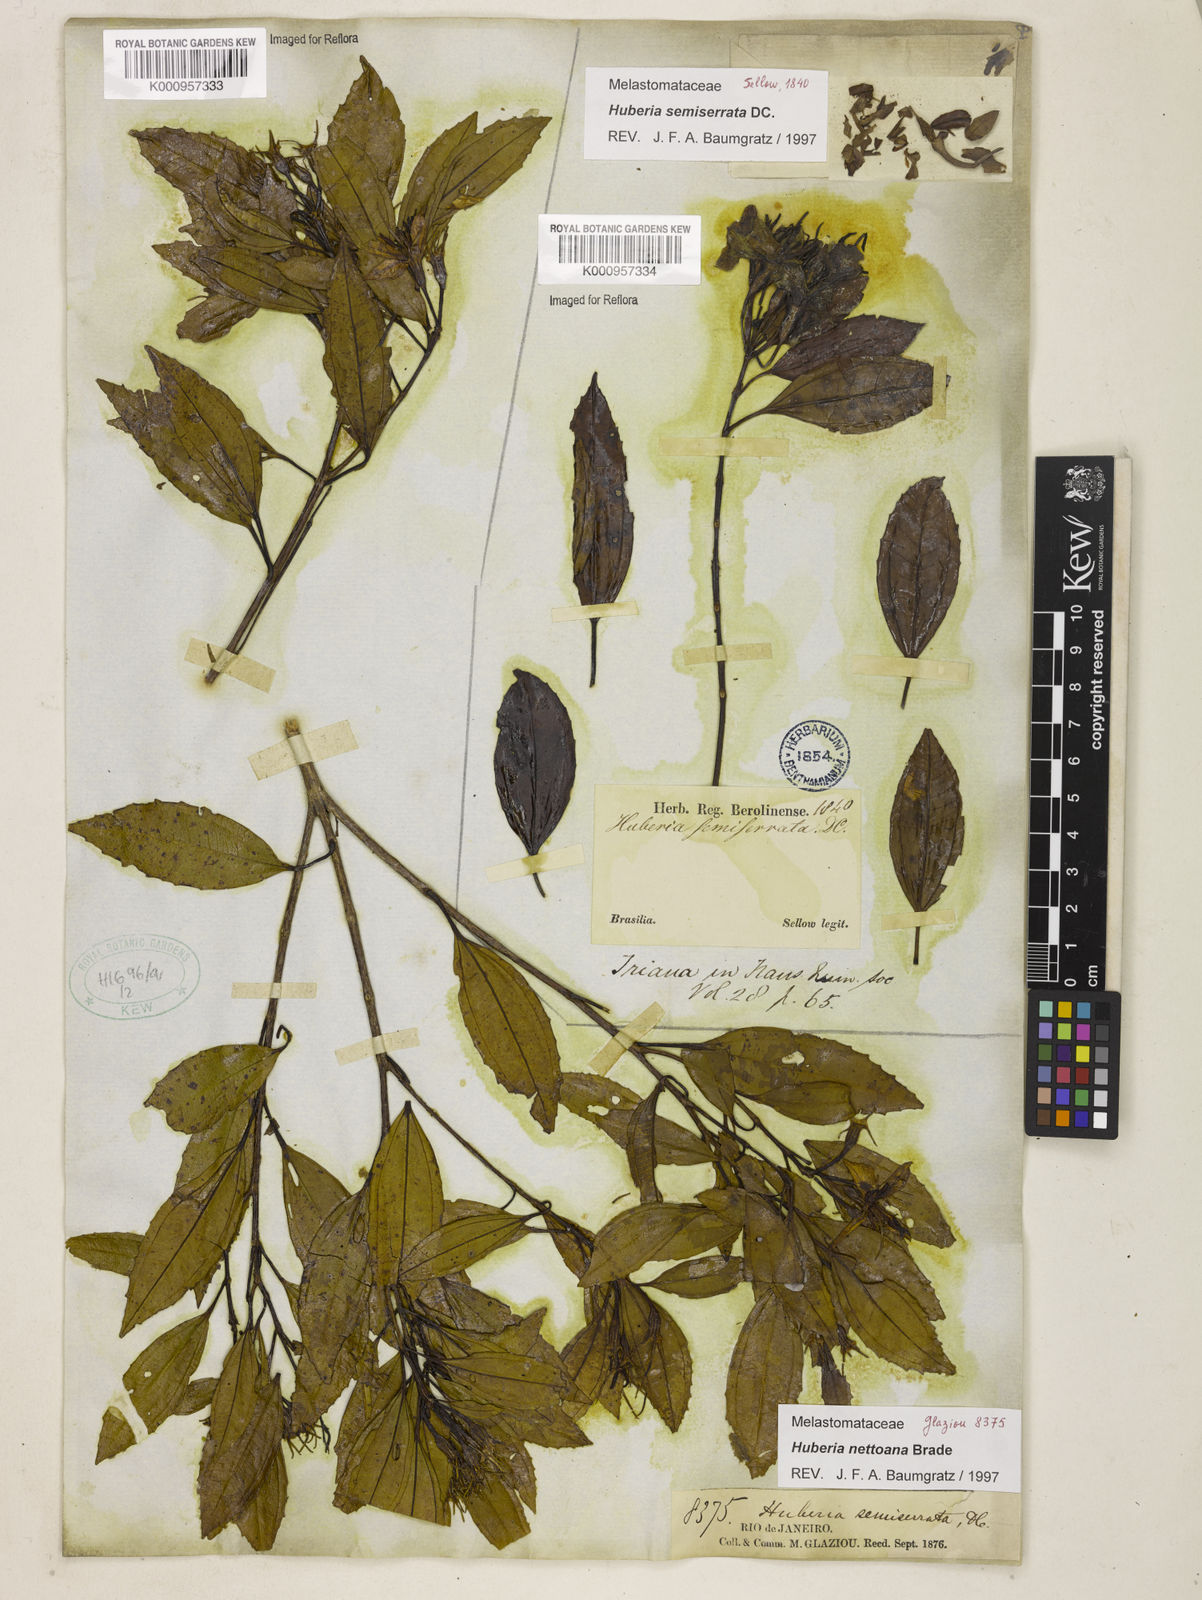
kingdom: Plantae
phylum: Tracheophyta
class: Magnoliopsida
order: Myrtales
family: Melastomataceae
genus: Huberia
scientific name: Huberia nettoana
